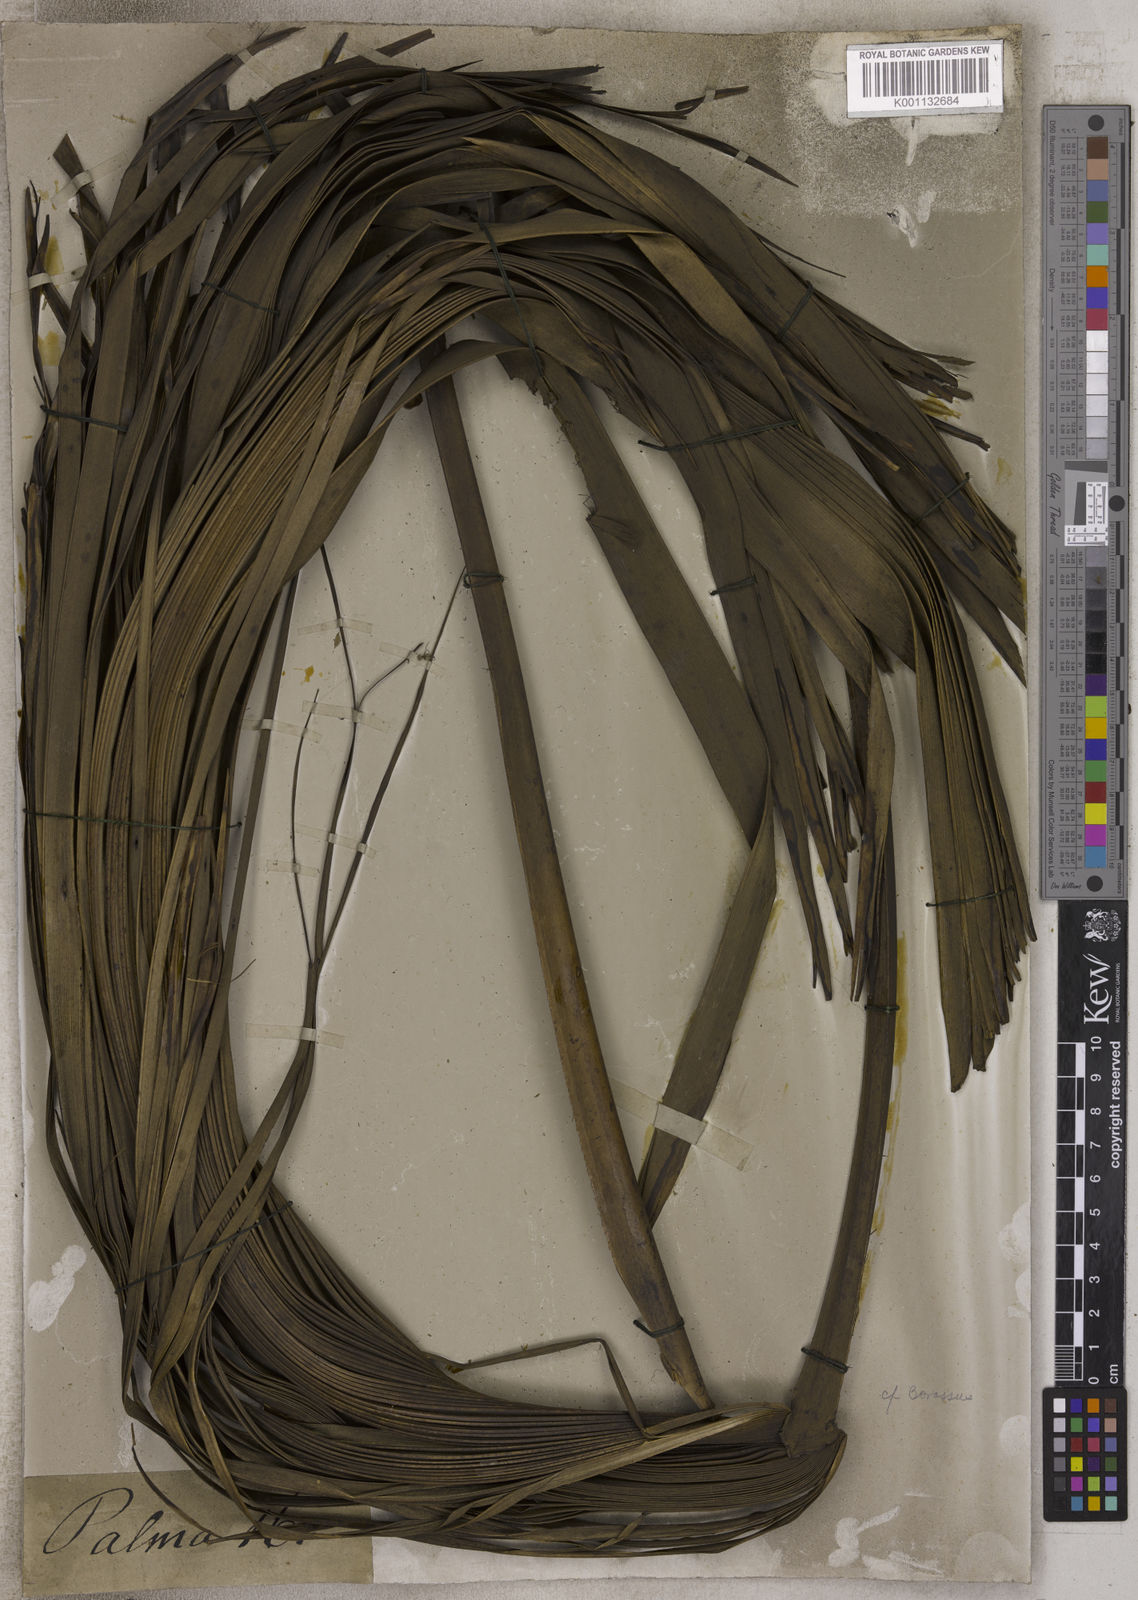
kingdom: Plantae
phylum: Tracheophyta
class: Liliopsida
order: Arecales
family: Arecaceae
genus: Borassus
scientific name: Borassus
